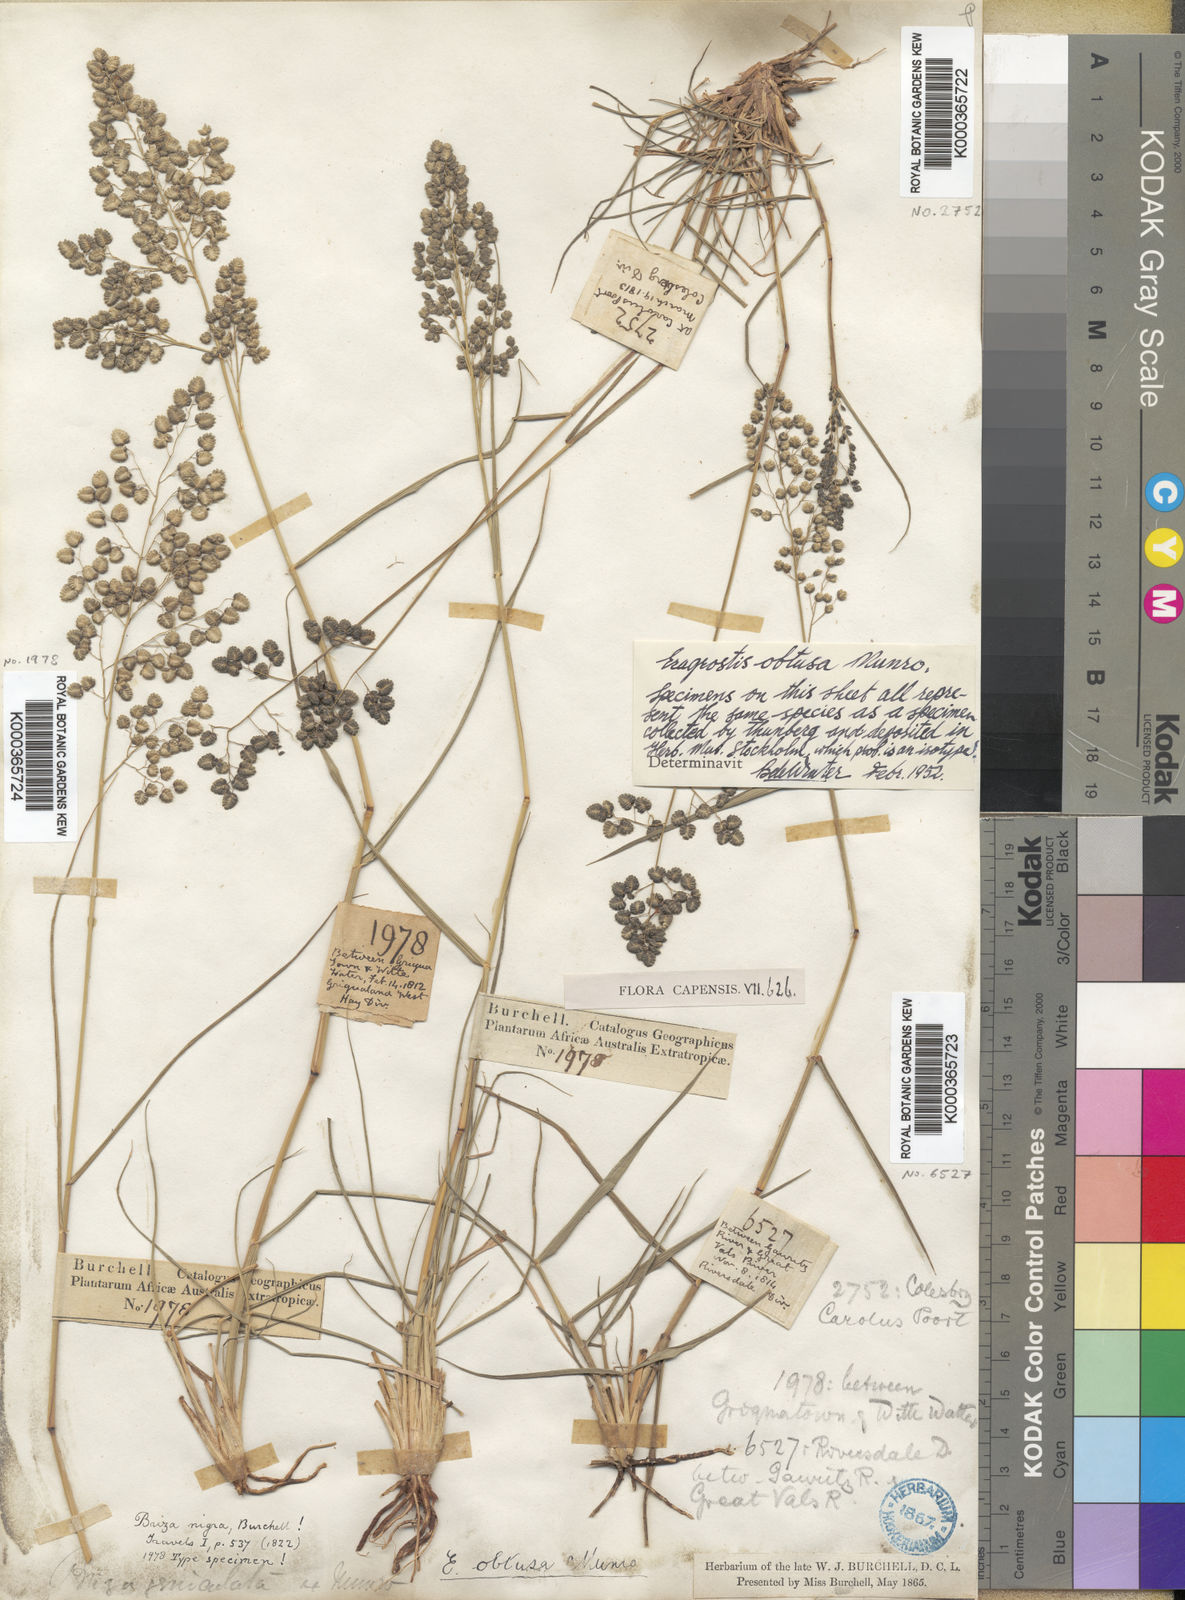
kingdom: Plantae
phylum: Tracheophyta
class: Liliopsida
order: Poales
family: Poaceae
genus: Eragrostis
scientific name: Eragrostis obtusa
